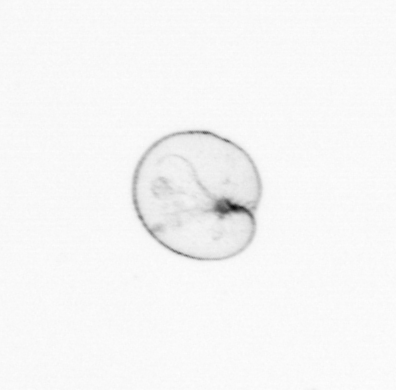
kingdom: Chromista
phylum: Myzozoa
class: Dinophyceae
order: Noctilucales
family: Noctilucaceae
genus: Noctiluca
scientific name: Noctiluca scintillans
